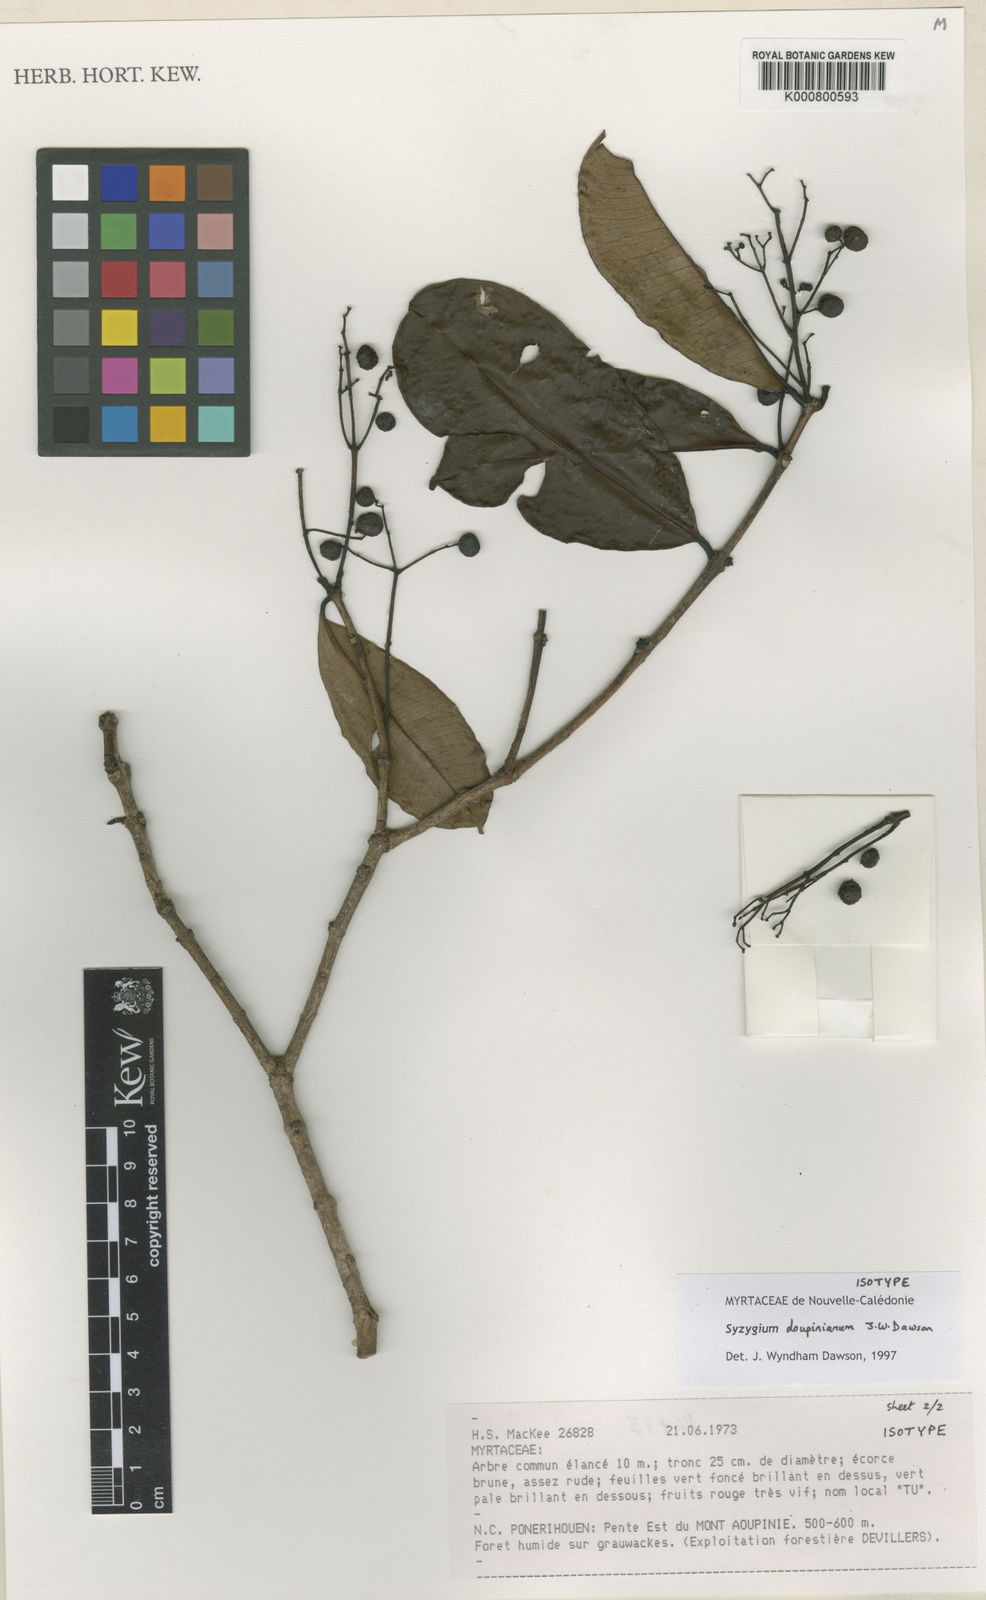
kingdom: Plantae
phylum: Tracheophyta
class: Magnoliopsida
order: Myrtales
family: Myrtaceae
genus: Syzygium
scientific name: Syzygium
